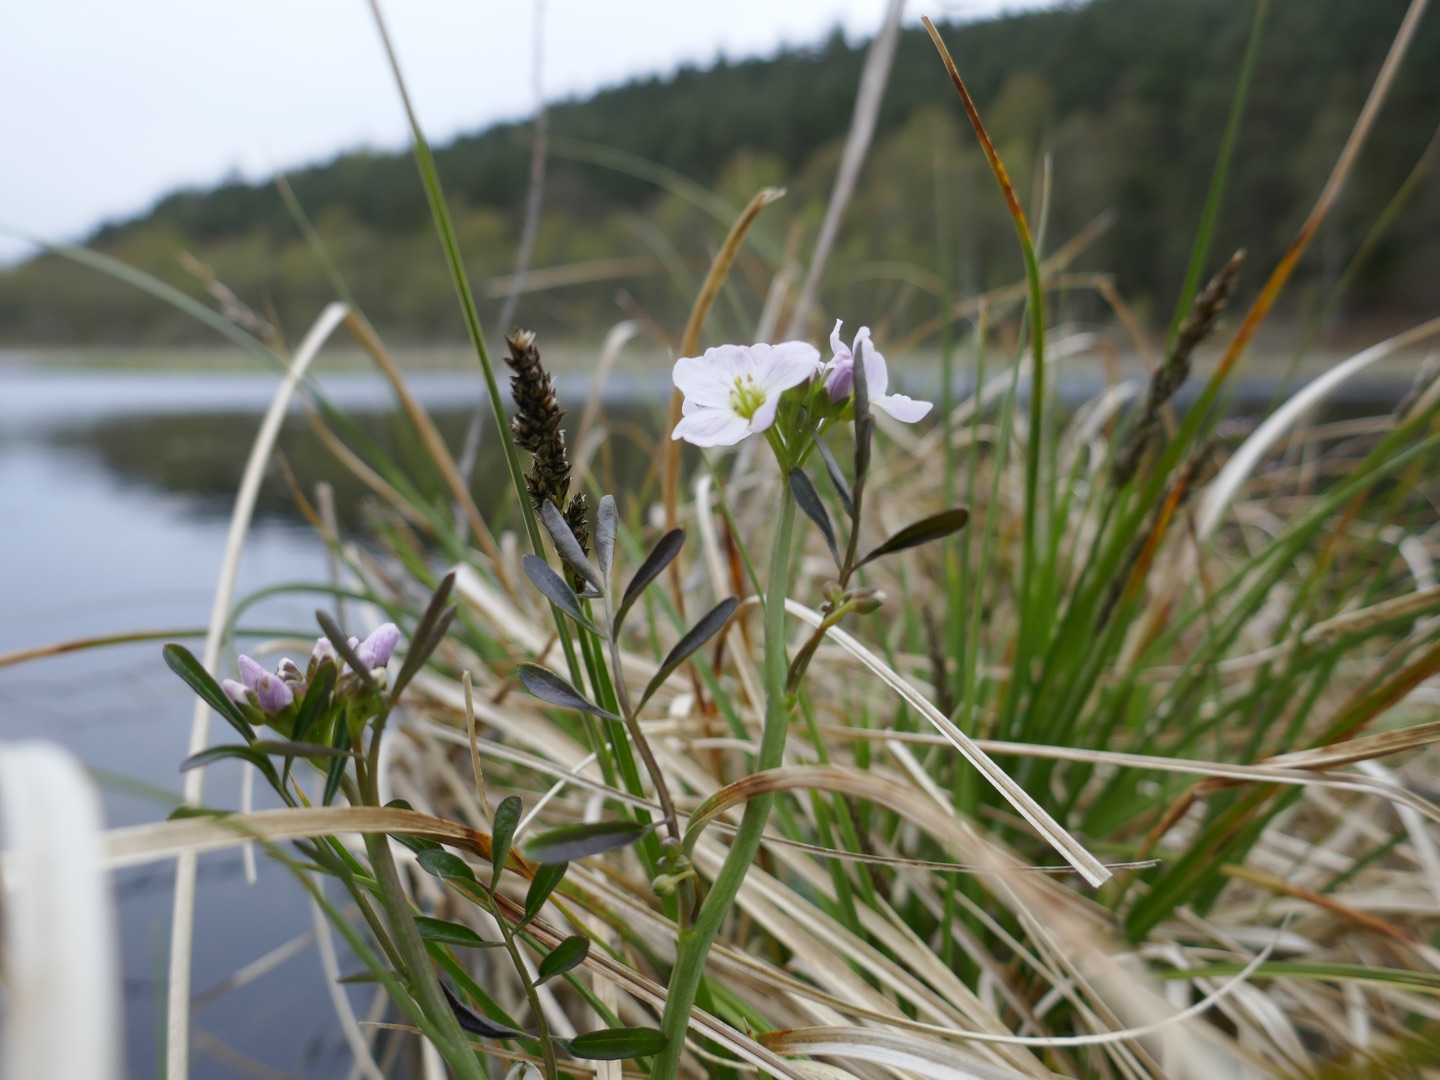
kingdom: Plantae
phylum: Tracheophyta
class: Magnoliopsida
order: Brassicales
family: Brassicaceae
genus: Cardamine
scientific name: Cardamine pratensis
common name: Engkarse
